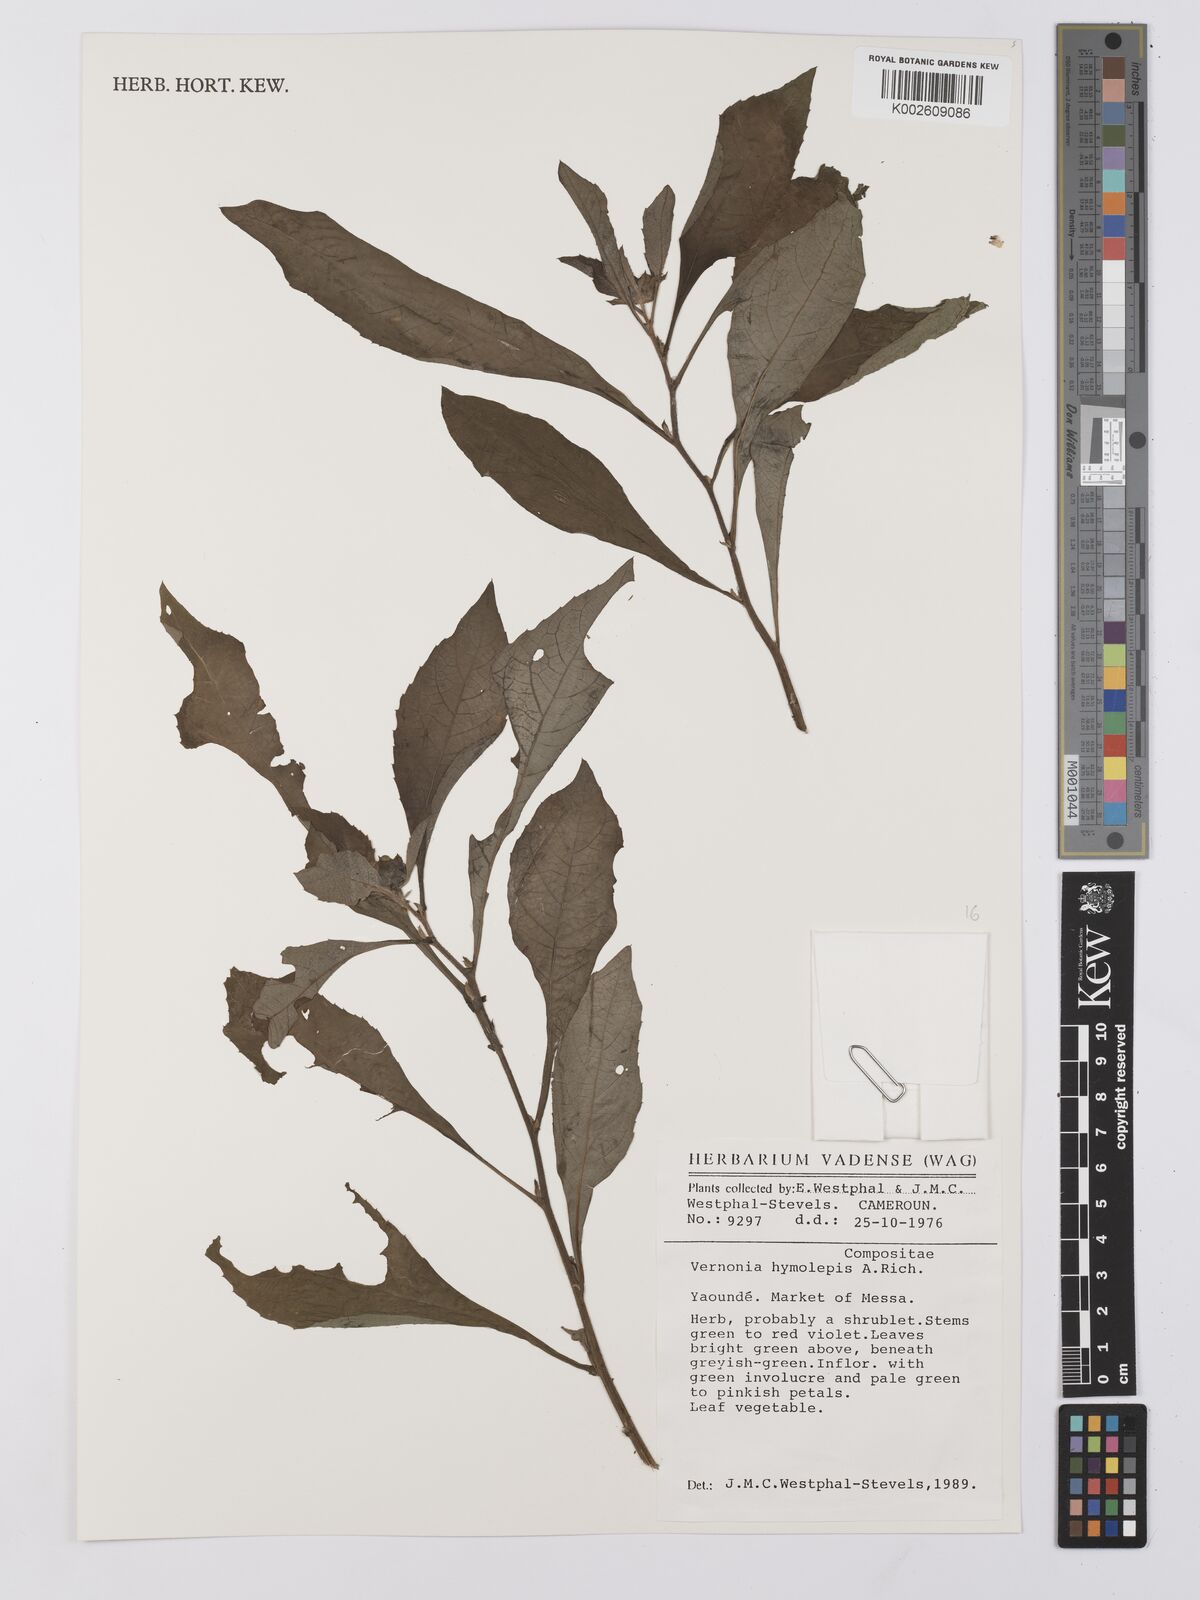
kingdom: Plantae
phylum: Tracheophyta
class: Magnoliopsida
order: Asterales
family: Asteraceae
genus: Baccharoides
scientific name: Baccharoides hymenolepis
